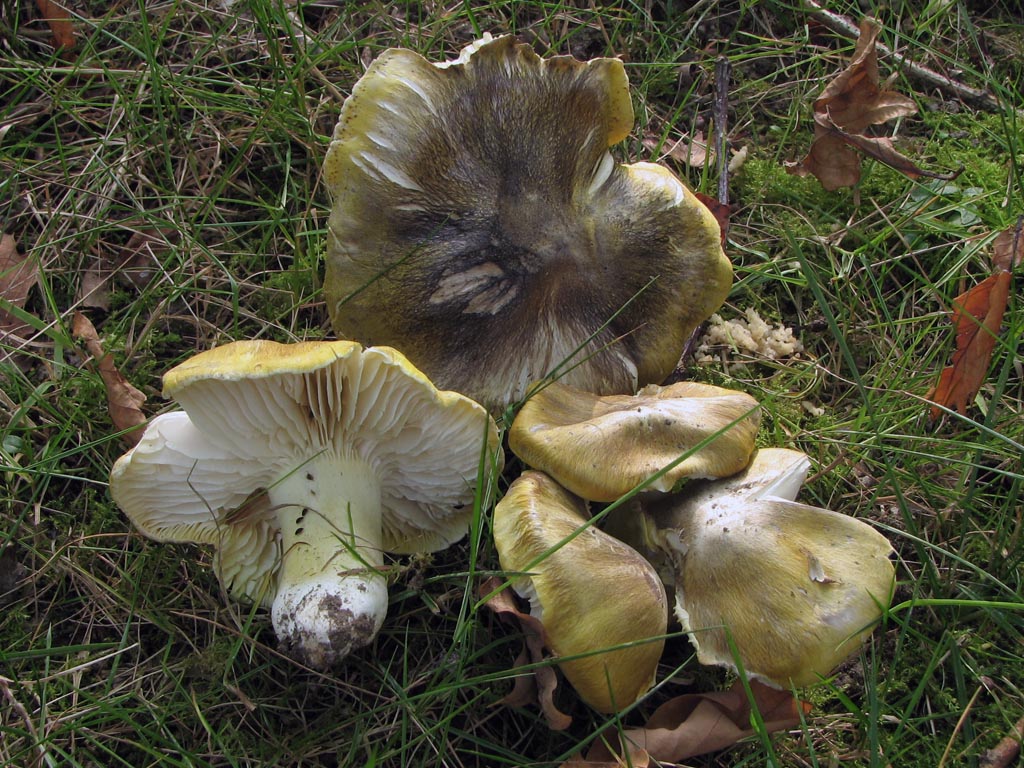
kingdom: Fungi
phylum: Basidiomycota
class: Agaricomycetes
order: Agaricales
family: Tricholomataceae
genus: Tricholoma
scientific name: Tricholoma sejunctum
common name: grøngul ridderhat
